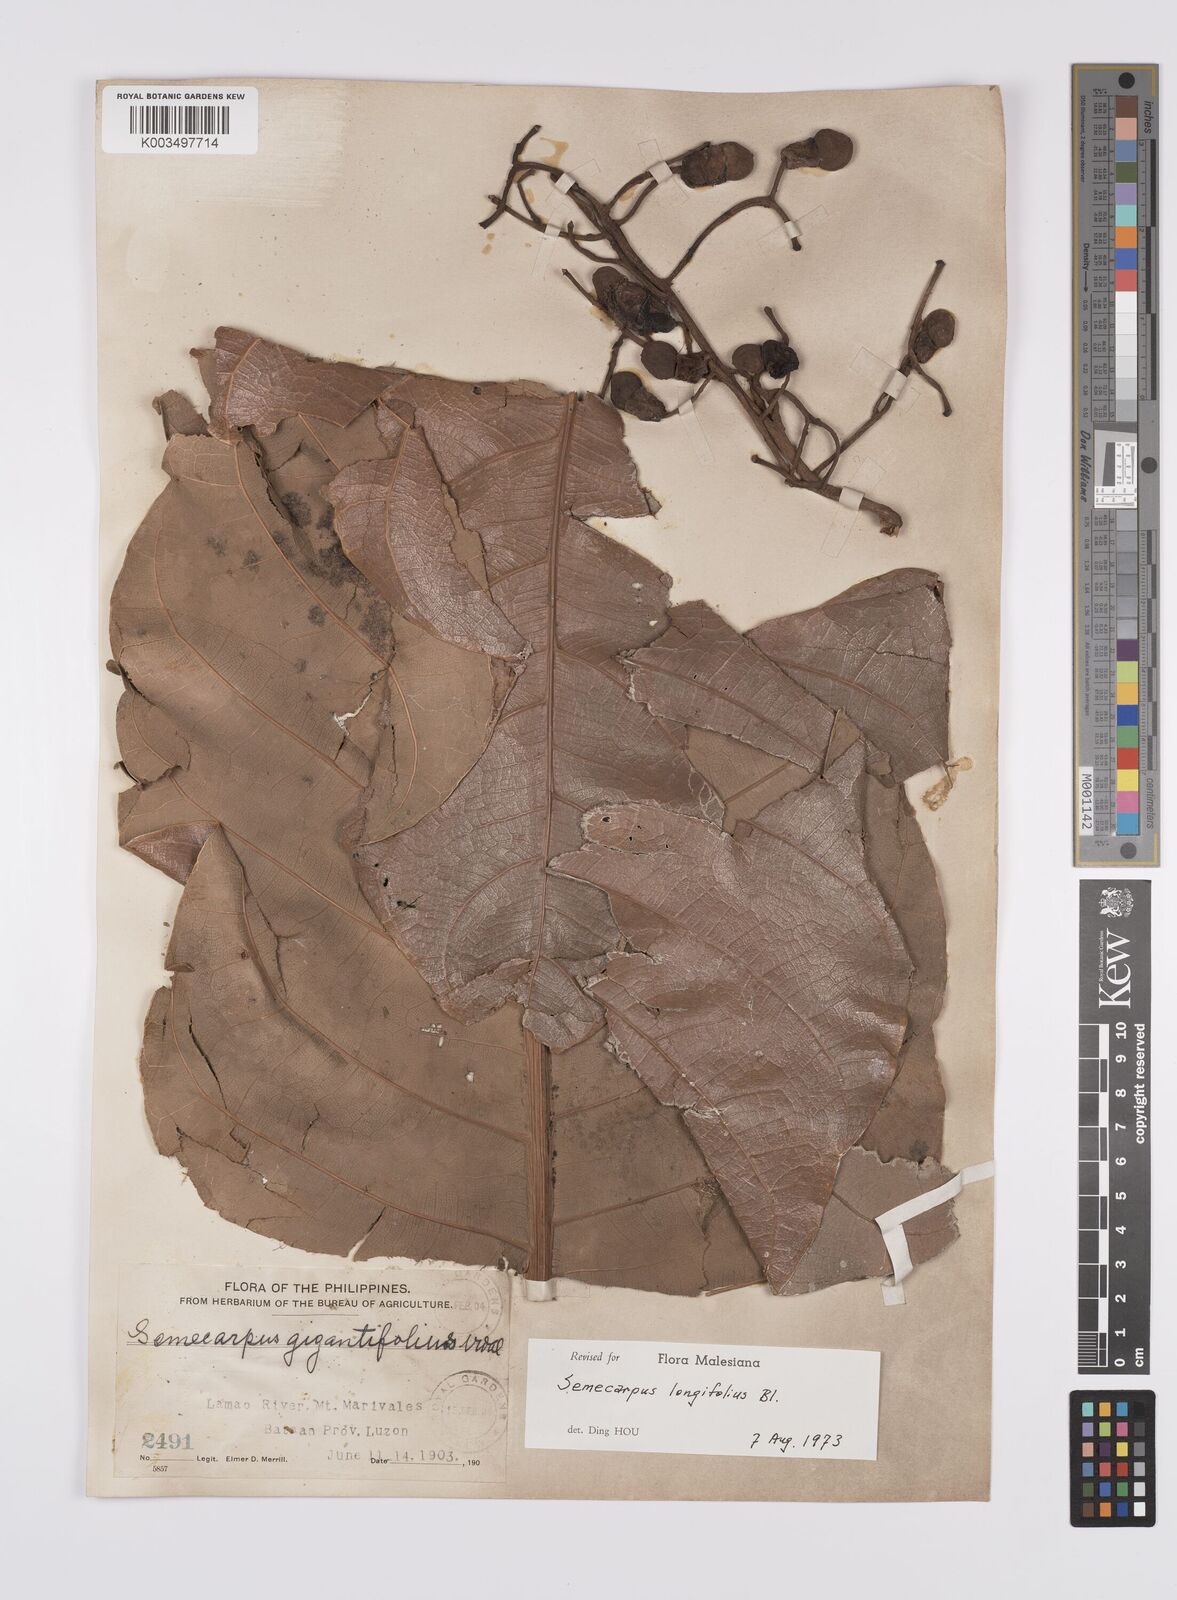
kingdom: Plantae
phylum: Tracheophyta
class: Magnoliopsida
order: Sapindales
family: Anacardiaceae
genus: Semecarpus
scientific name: Semecarpus longifolius
